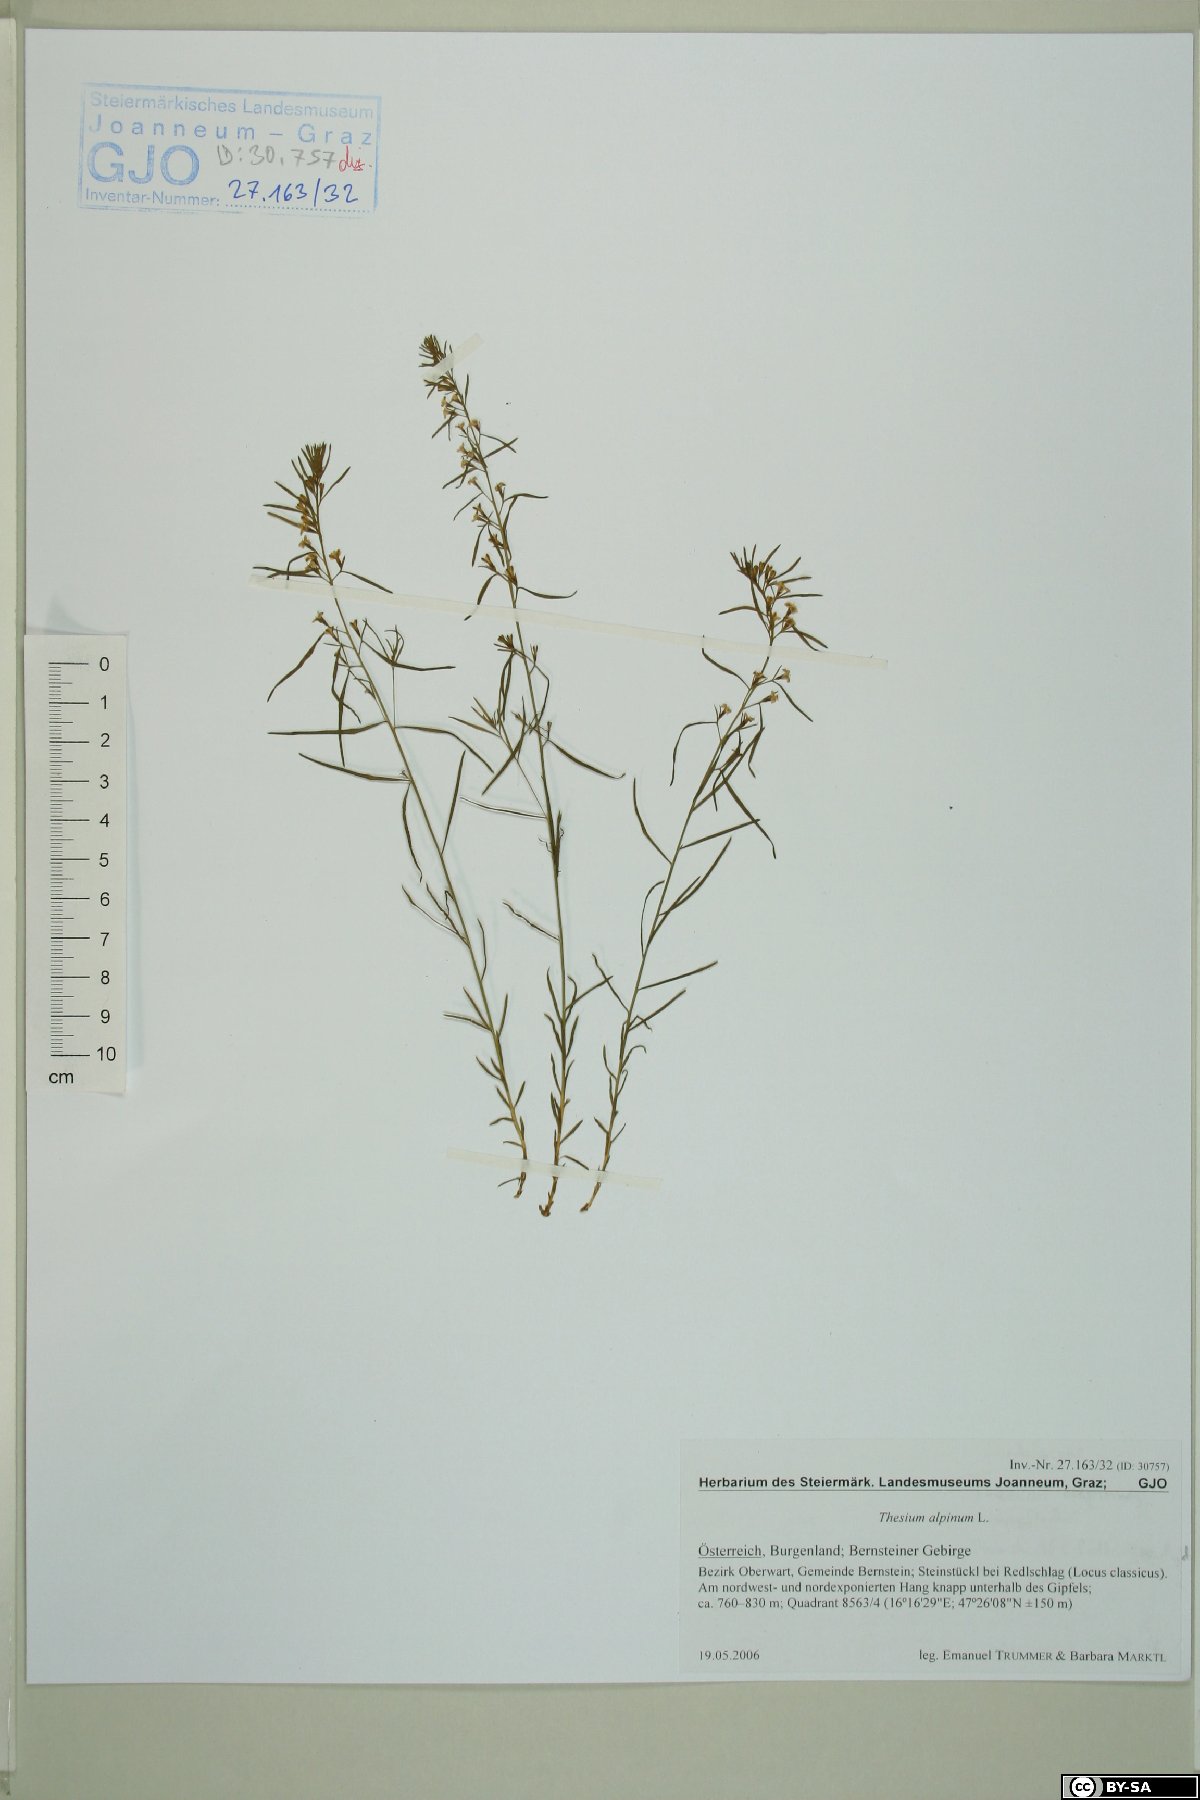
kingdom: Plantae
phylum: Tracheophyta
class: Magnoliopsida
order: Santalales
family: Thesiaceae
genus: Thesium
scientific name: Thesium alpinum
